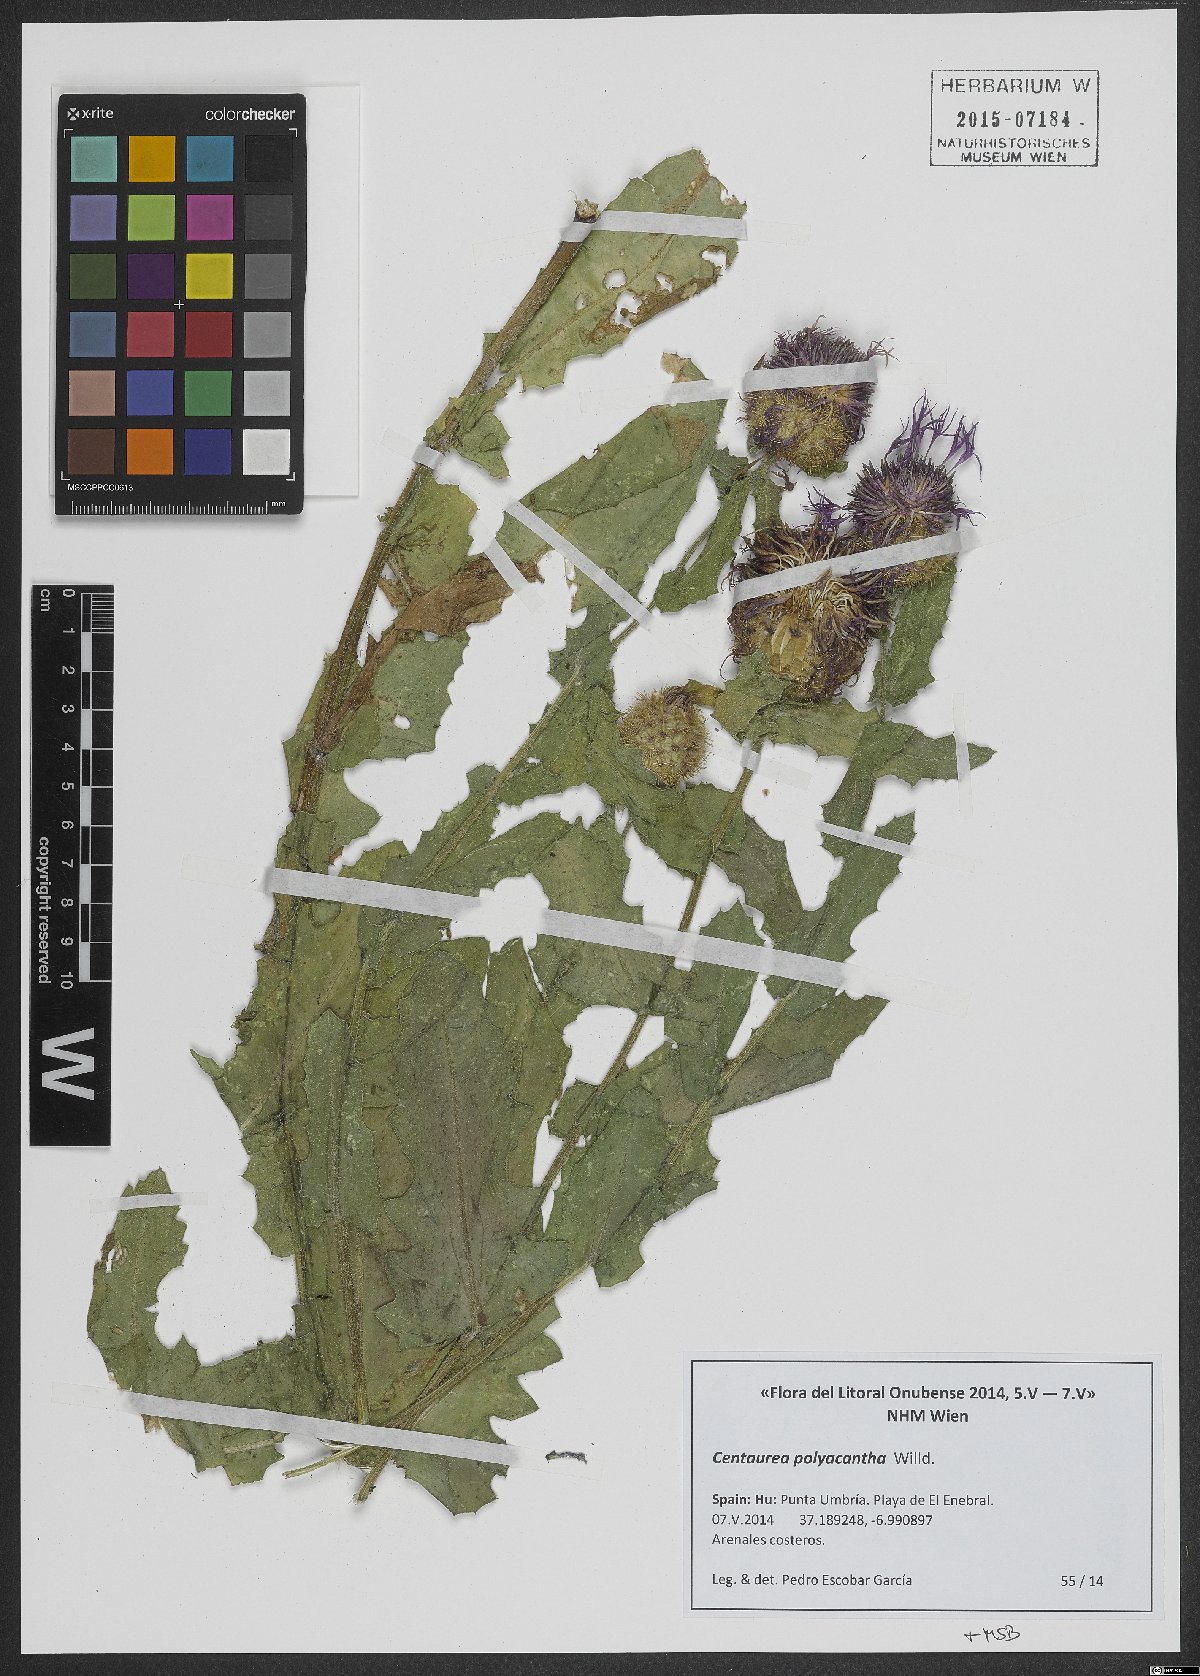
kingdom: Plantae
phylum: Tracheophyta
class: Magnoliopsida
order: Asterales
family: Asteraceae
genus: Centaurea
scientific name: Centaurea polyacantha
